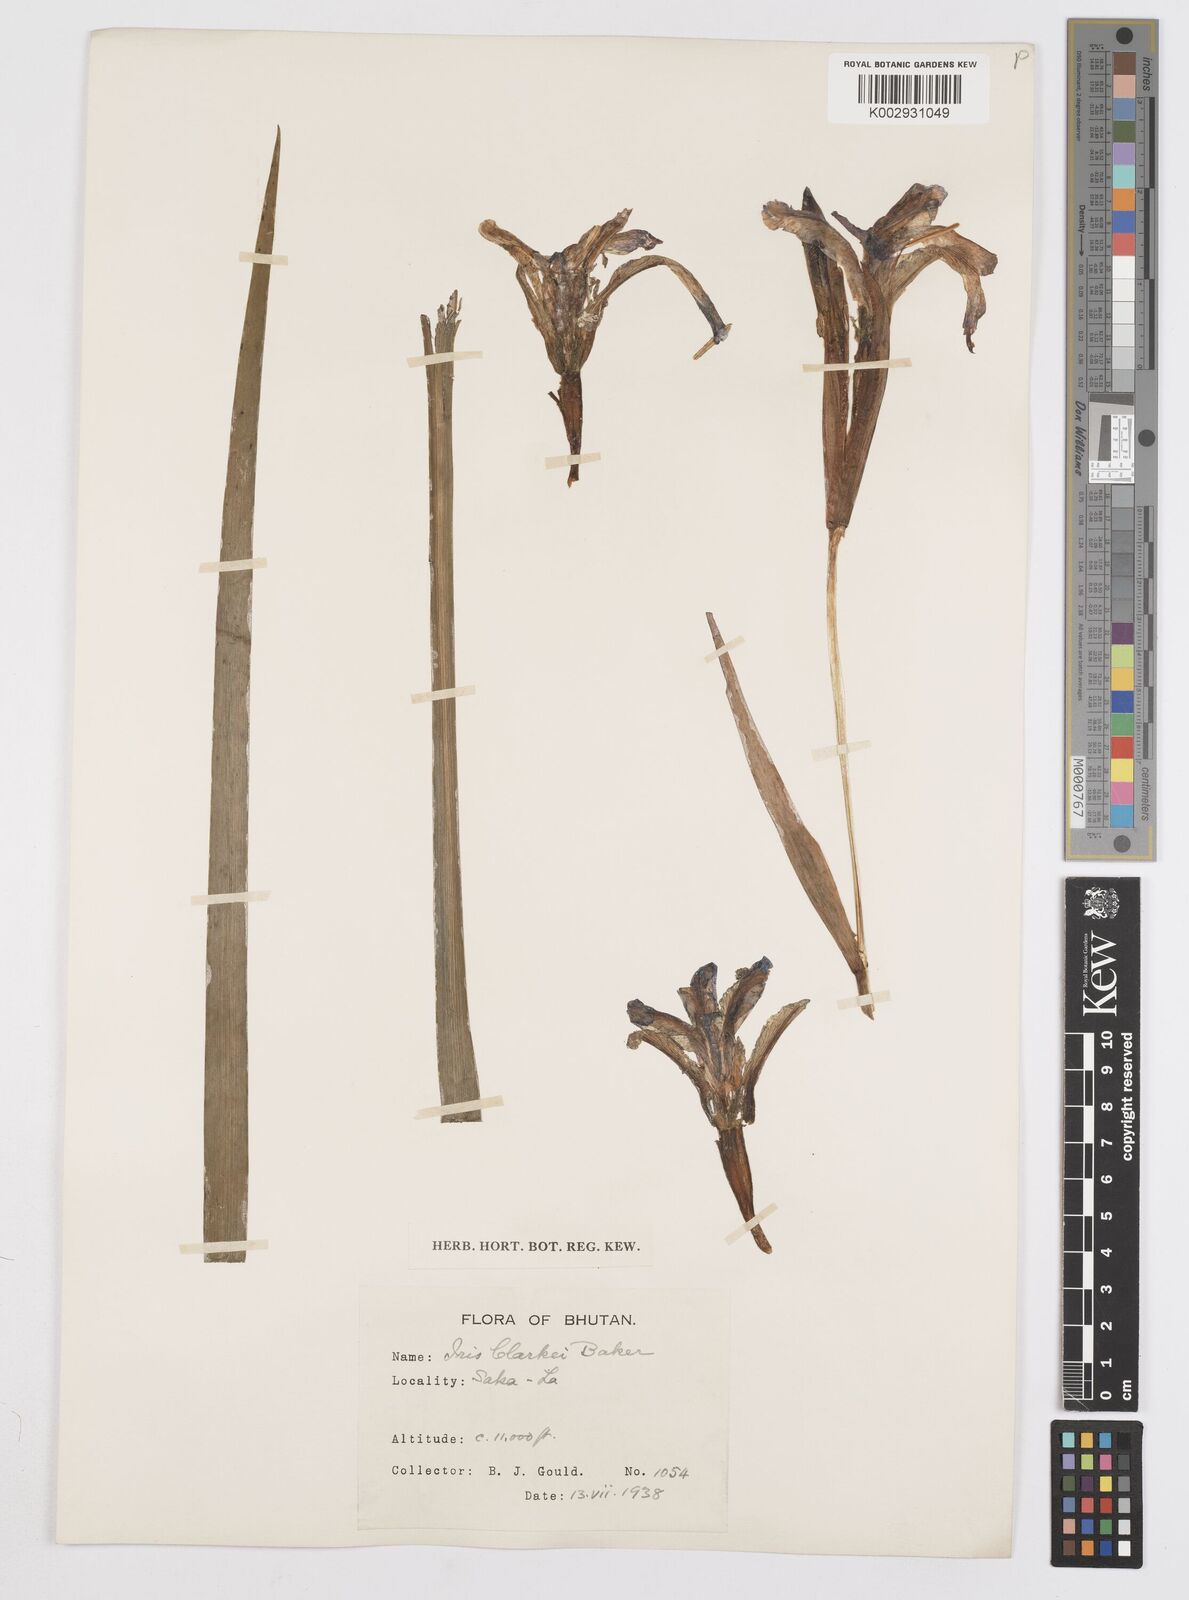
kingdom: Plantae
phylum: Tracheophyta
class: Liliopsida
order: Asparagales
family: Iridaceae
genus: Iris
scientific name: Iris clarkei
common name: Tibet iris
